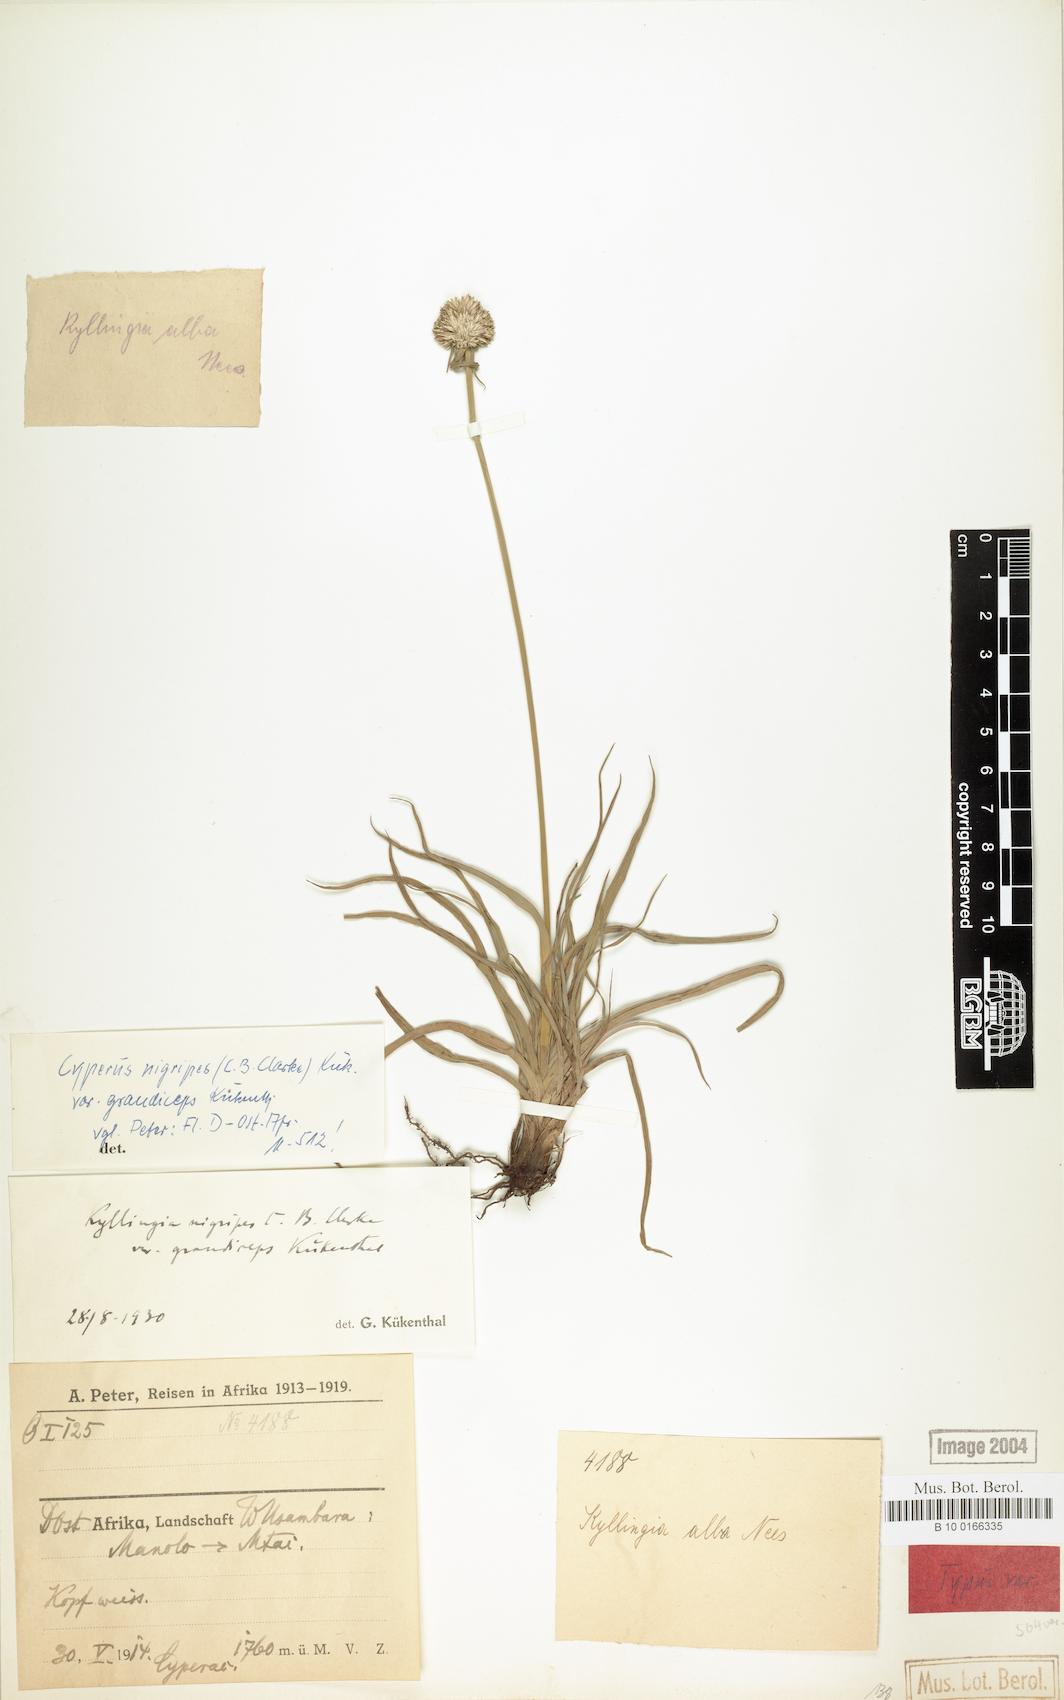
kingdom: Plantae
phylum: Tracheophyta
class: Liliopsida
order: Poales
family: Cyperaceae
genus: Cyperus
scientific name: Cyperus alatus
